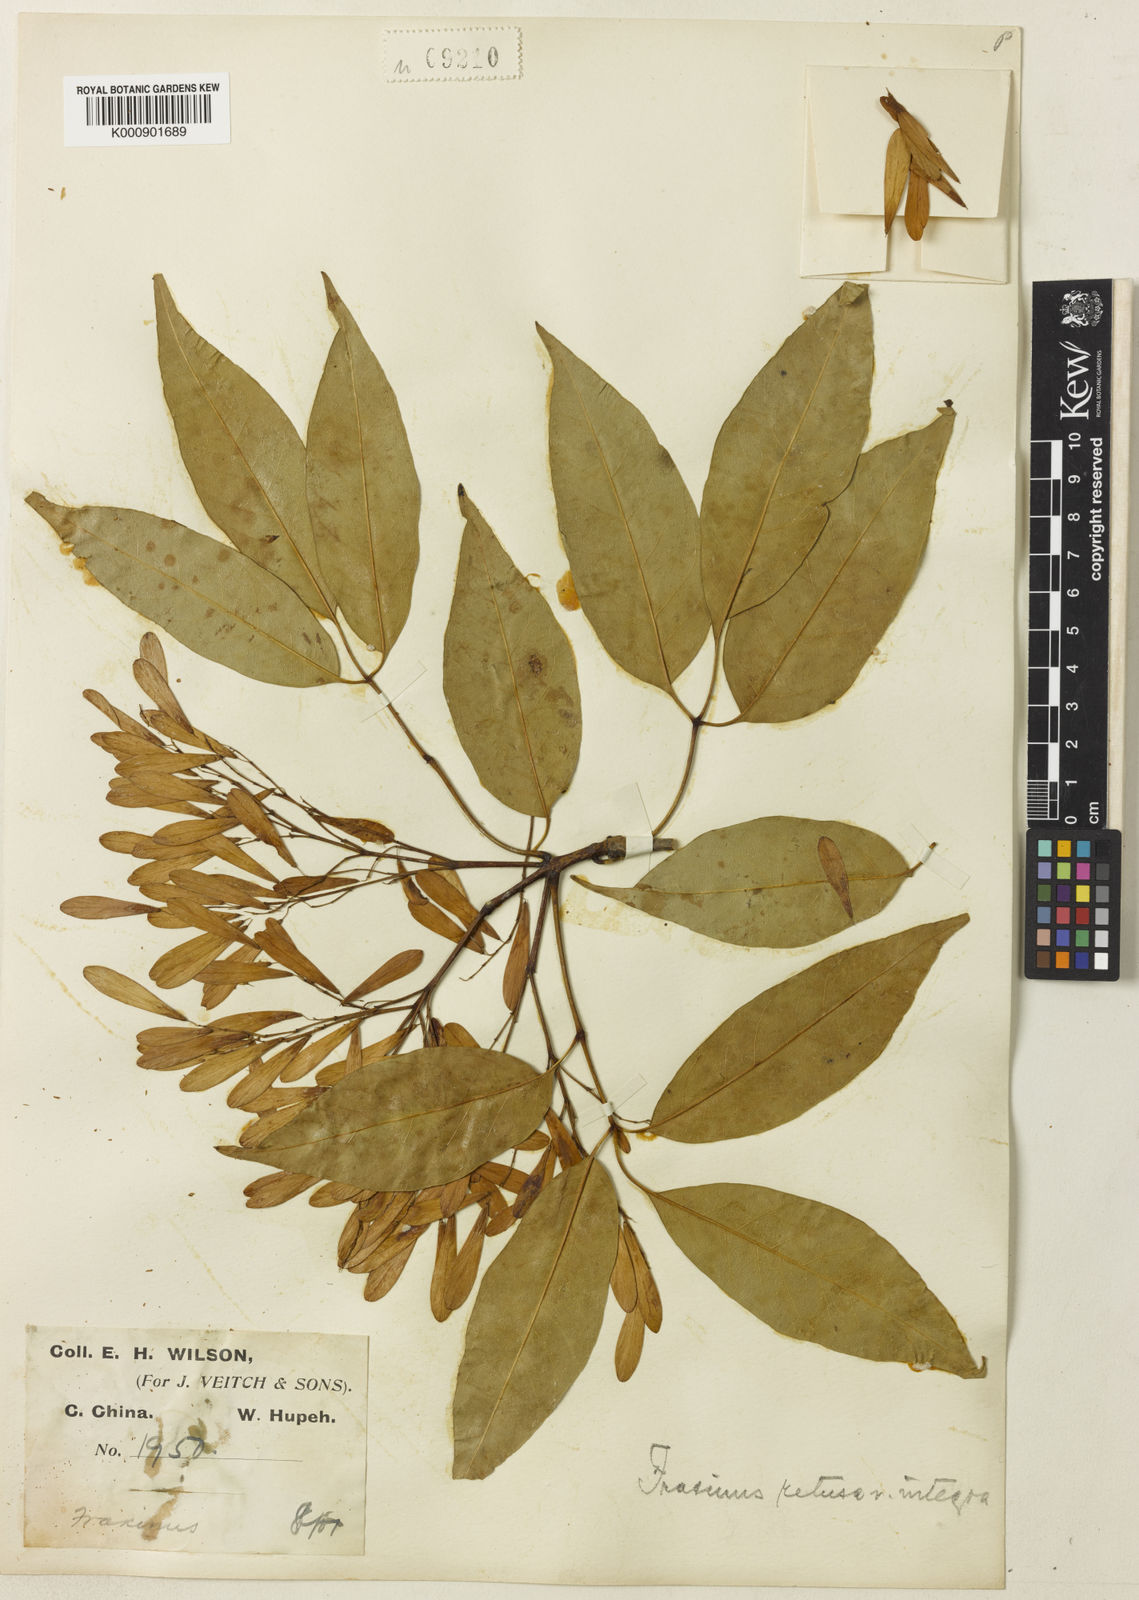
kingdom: Plantae
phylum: Tracheophyta
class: Magnoliopsida
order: Lamiales
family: Oleaceae
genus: Fraxinus
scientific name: Fraxinus floribunda
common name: East indian ash
